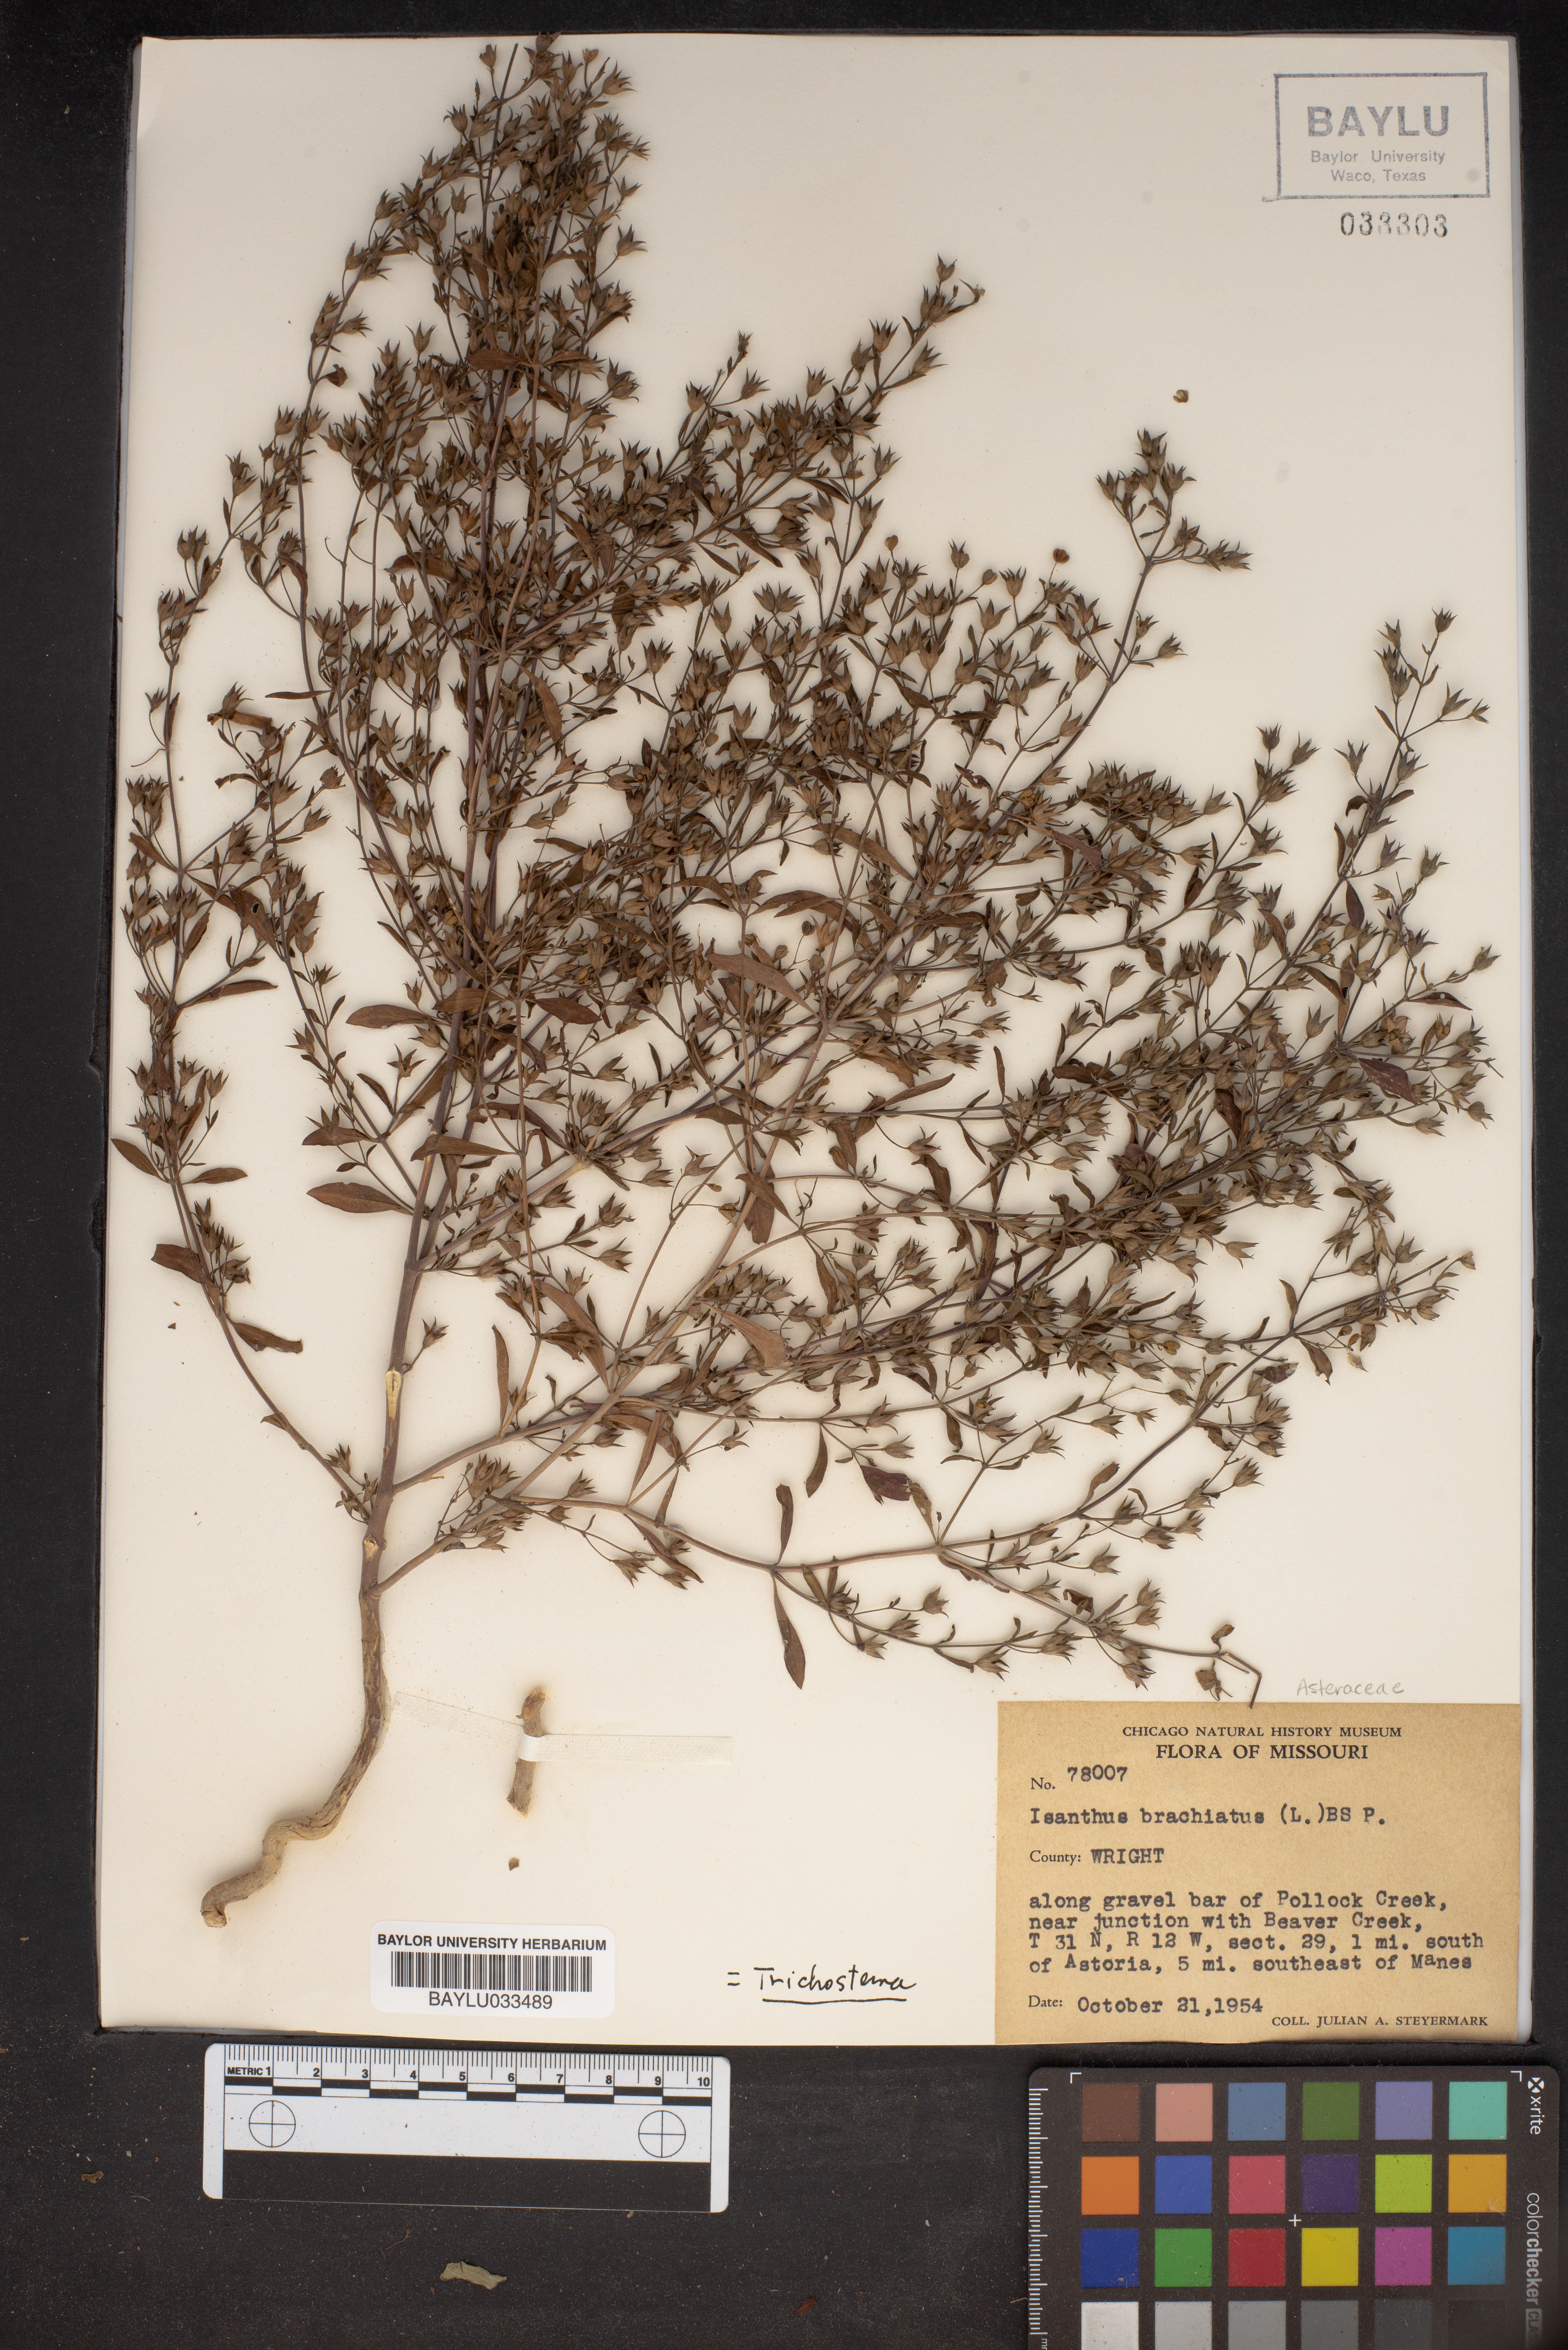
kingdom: Plantae
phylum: Tracheophyta
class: Magnoliopsida
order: Lamiales
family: Lamiaceae
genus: Trichostema
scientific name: Trichostema brachiatum
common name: False pennyroyal
